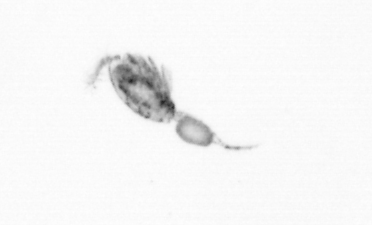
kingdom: Animalia
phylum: Arthropoda
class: Copepoda
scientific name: Copepoda
